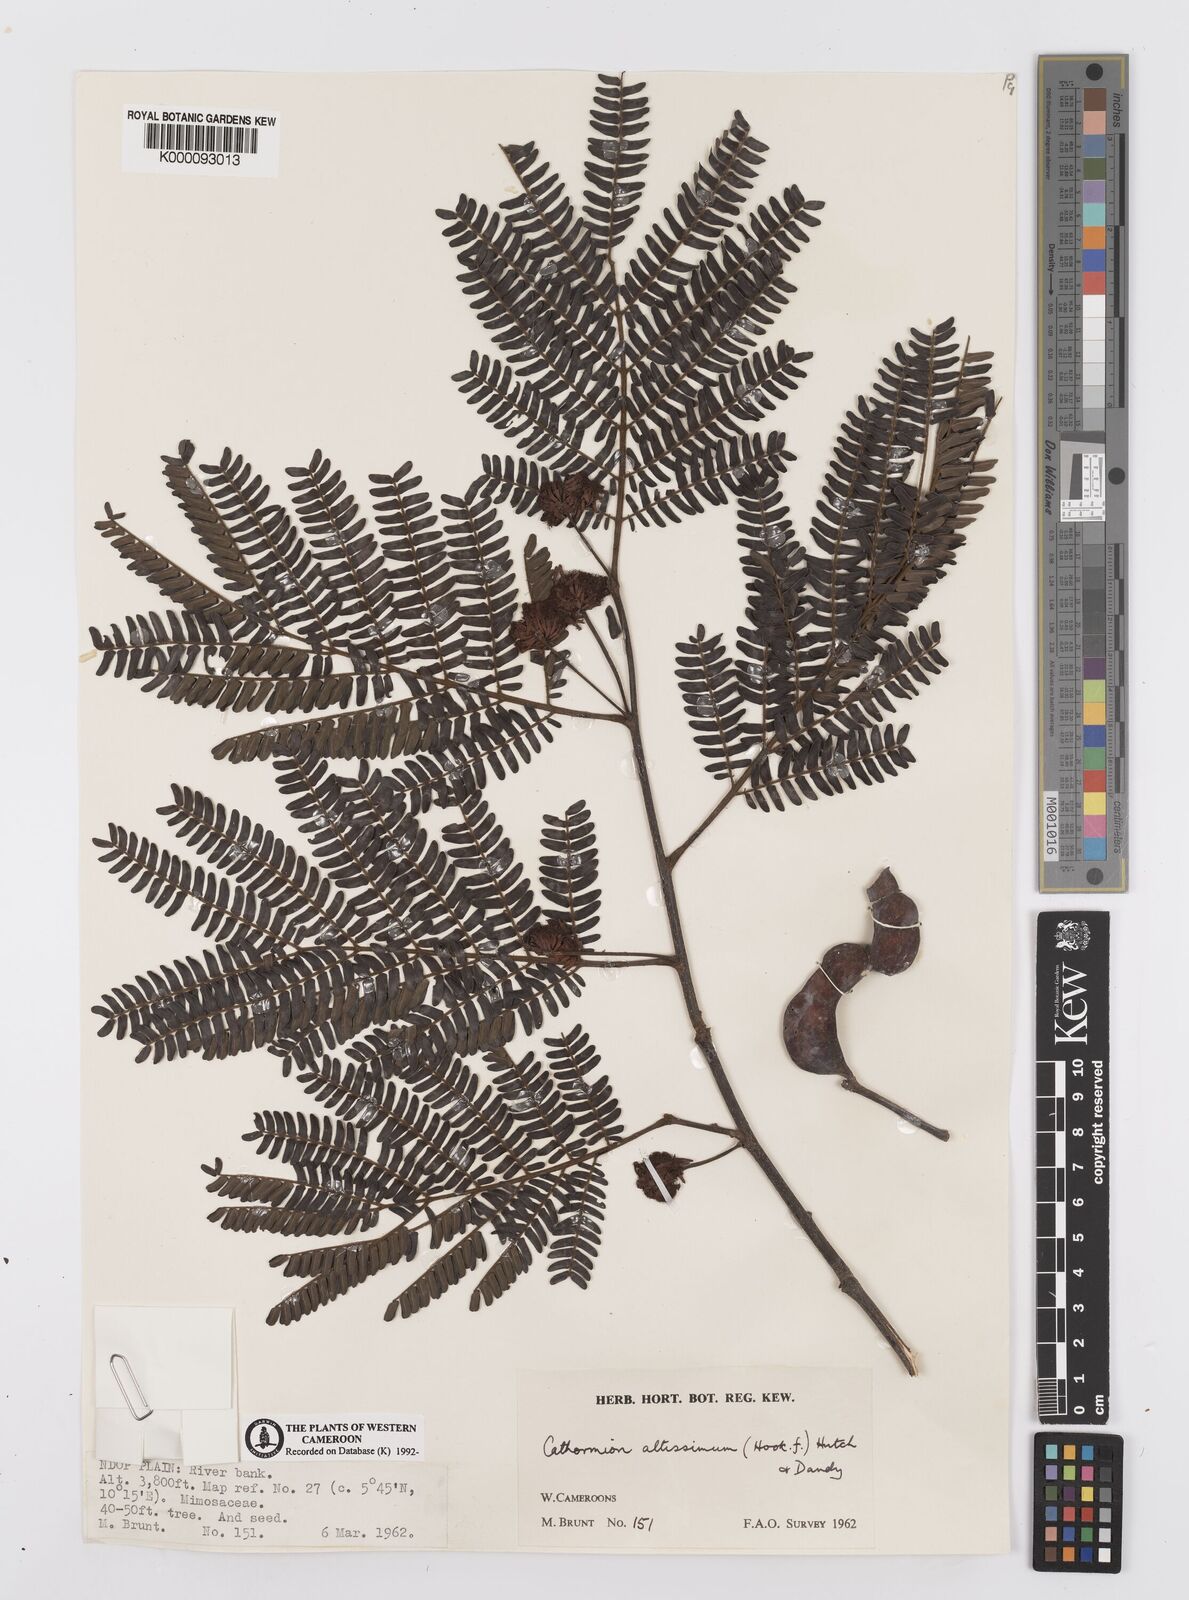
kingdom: Plantae
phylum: Tracheophyta
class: Magnoliopsida
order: Fabales
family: Fabaceae
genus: Albizia
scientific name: Albizia altissima
